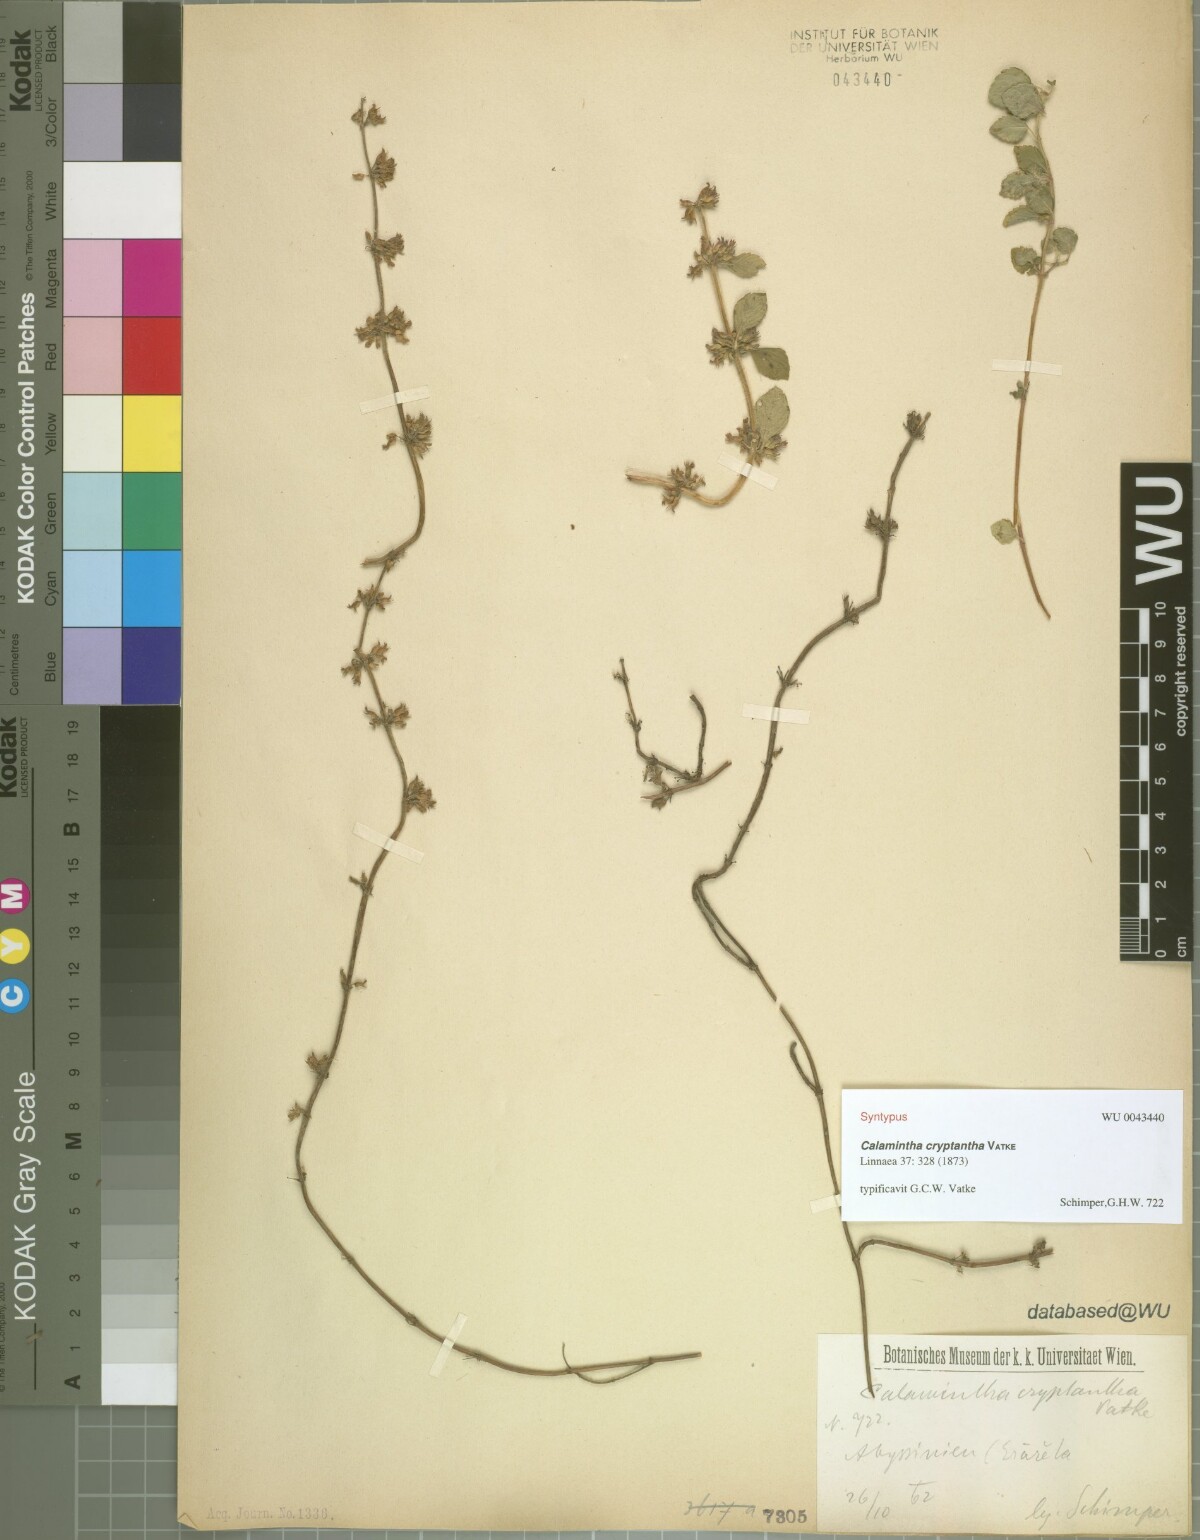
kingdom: Plantae
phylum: Tracheophyta
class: Magnoliopsida
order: Lamiales
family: Lamiaceae
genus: Clinopodium
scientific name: Clinopodium simense
